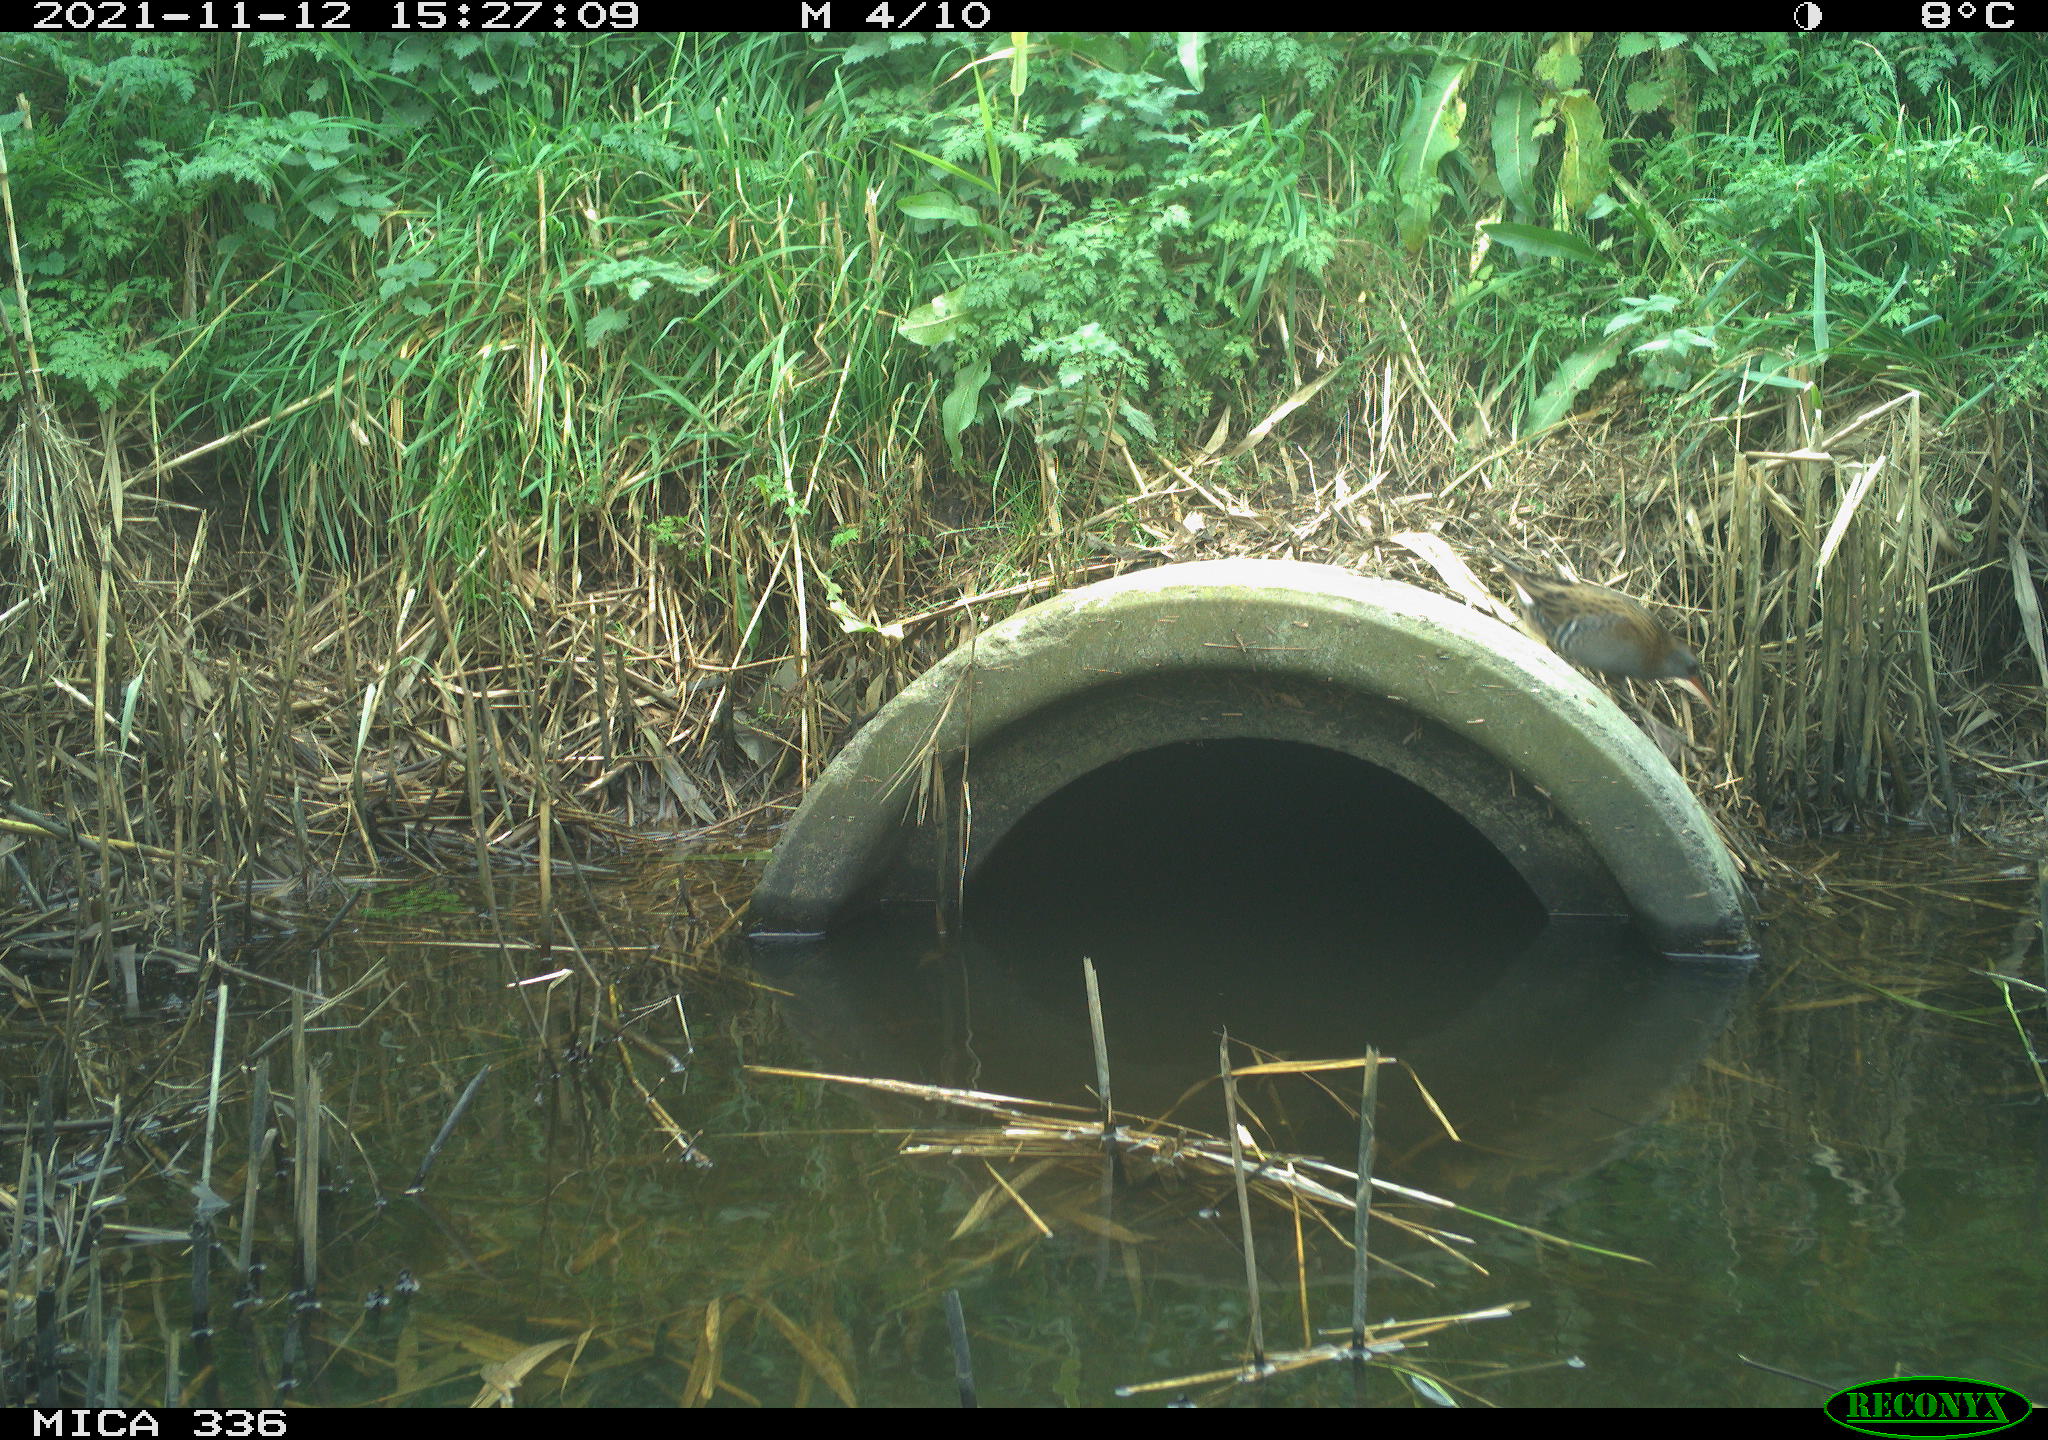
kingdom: Animalia
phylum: Chordata
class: Aves
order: Gruiformes
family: Rallidae
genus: Gallinula
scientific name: Gallinula chloropus
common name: Common moorhen
